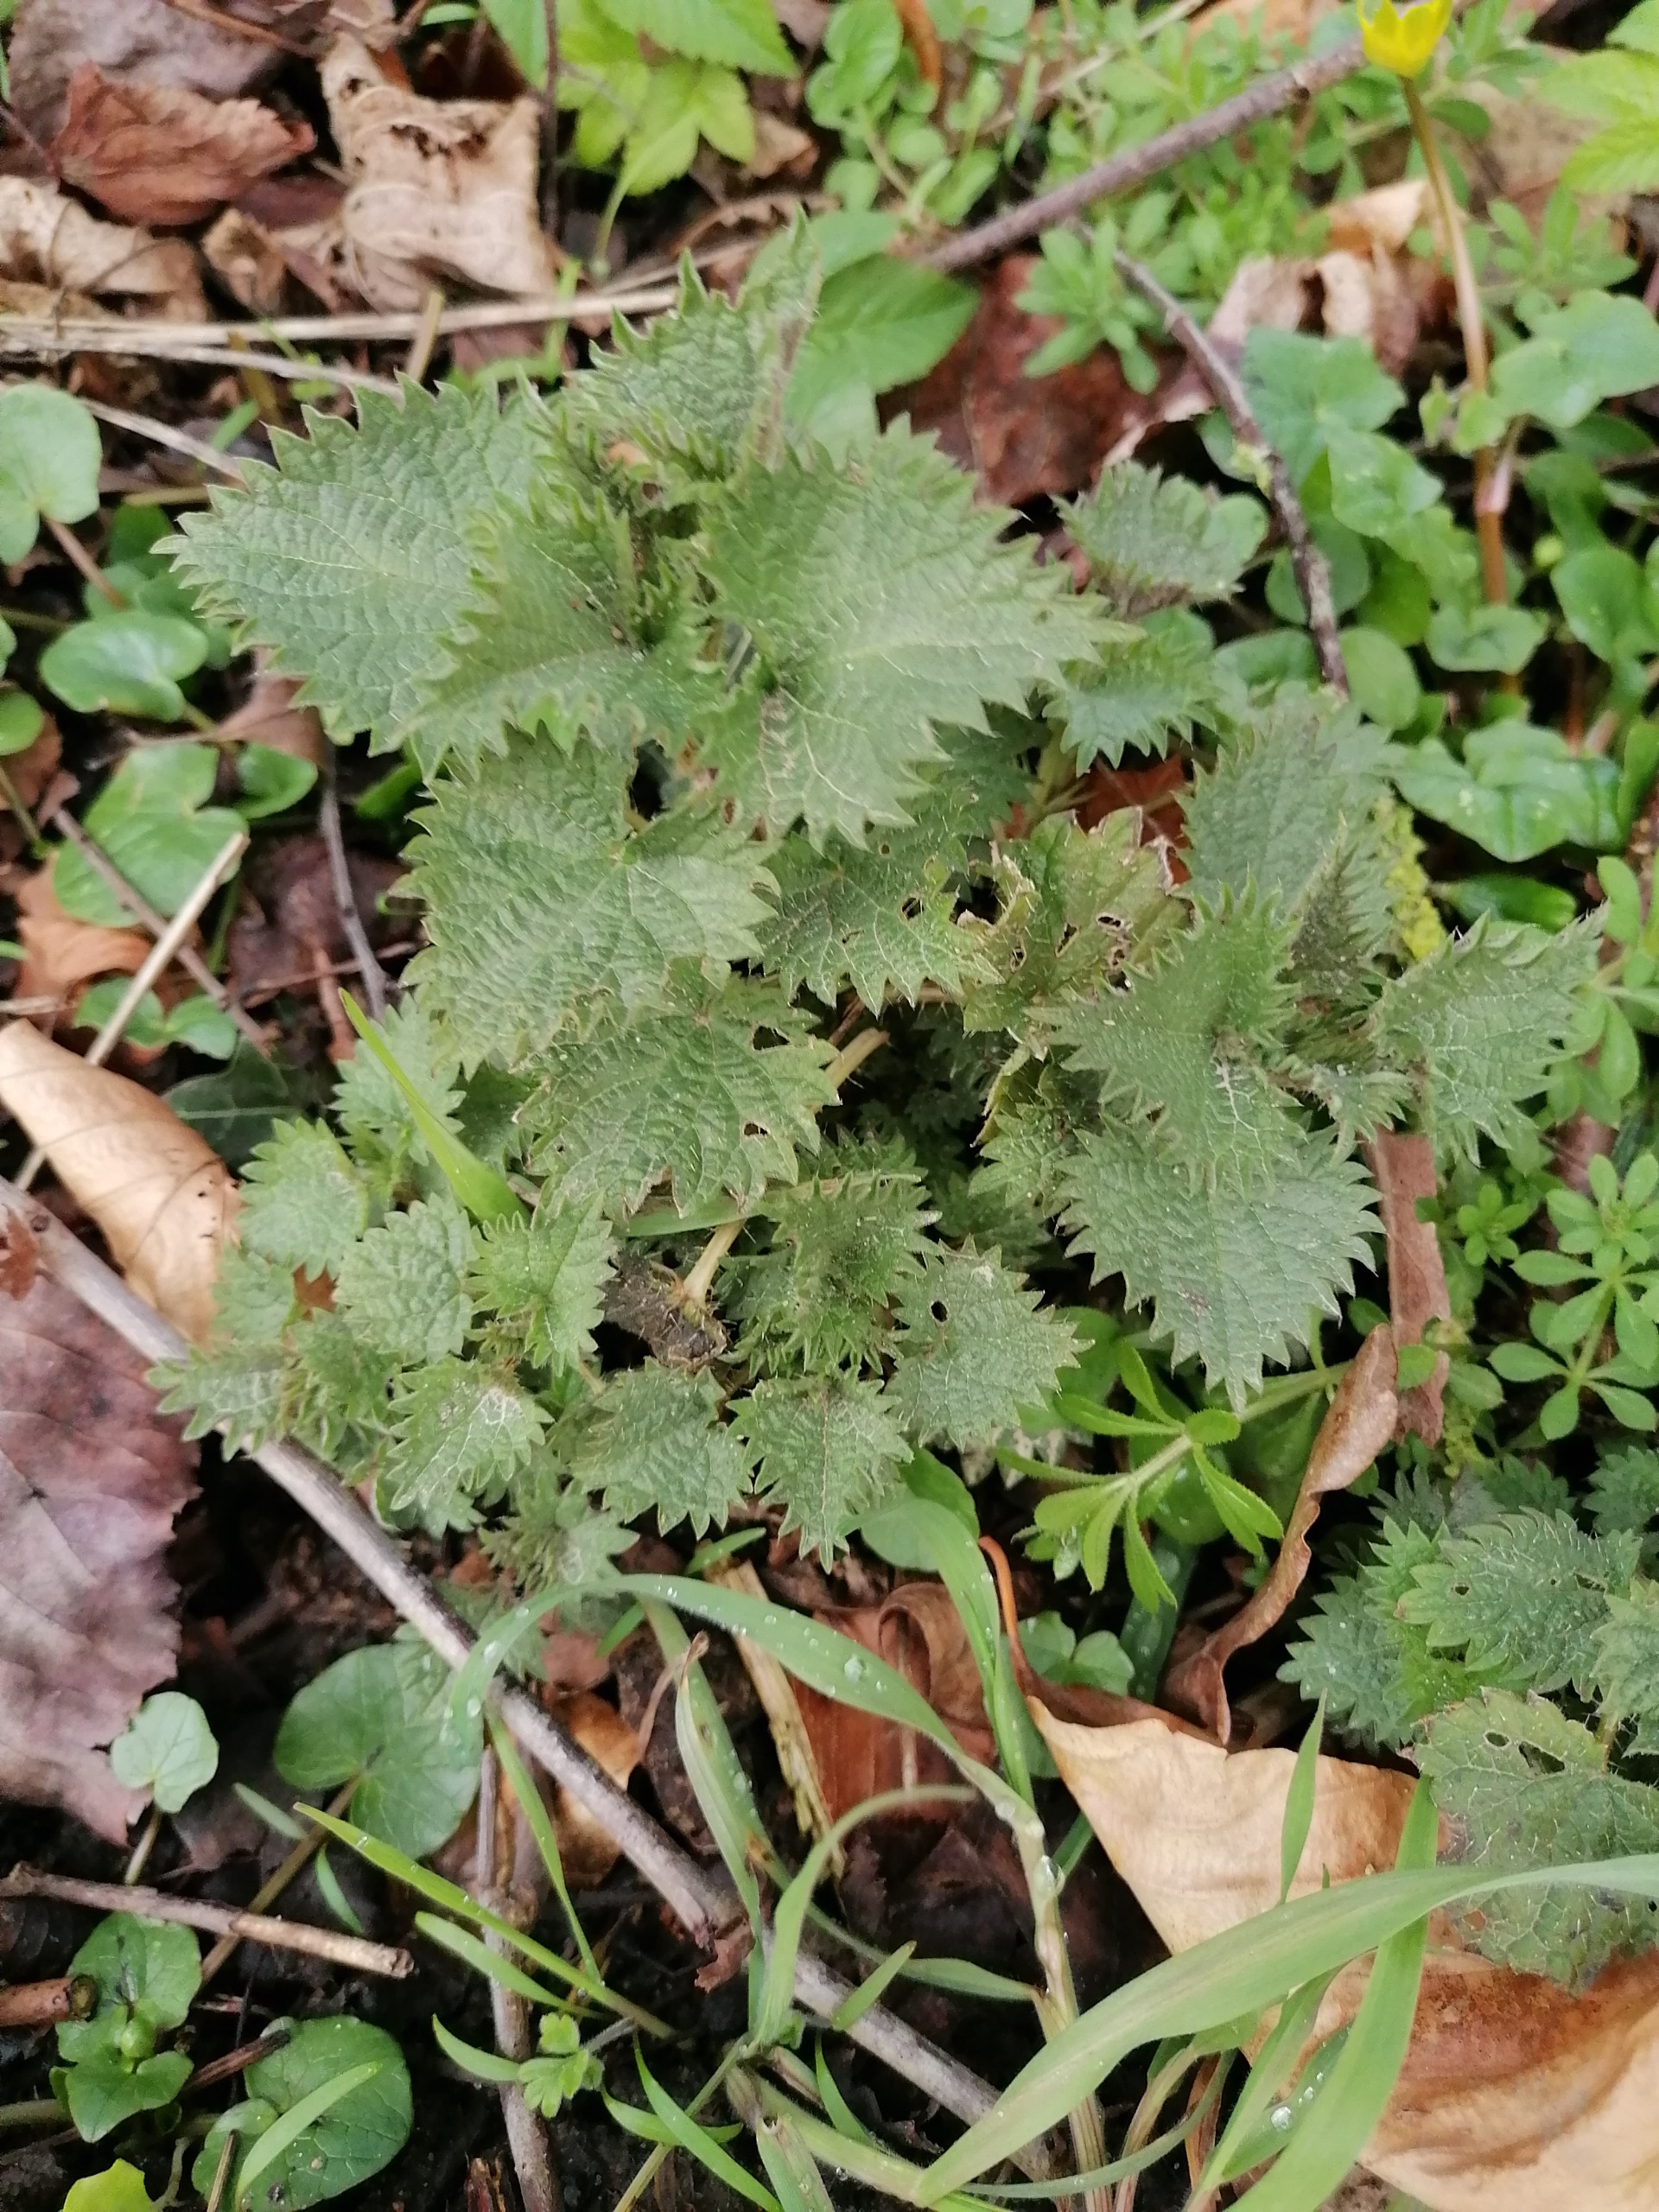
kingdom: Plantae
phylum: Tracheophyta
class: Magnoliopsida
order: Rosales
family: Urticaceae
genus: Urtica
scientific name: Urtica dioica
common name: Stor nælde
